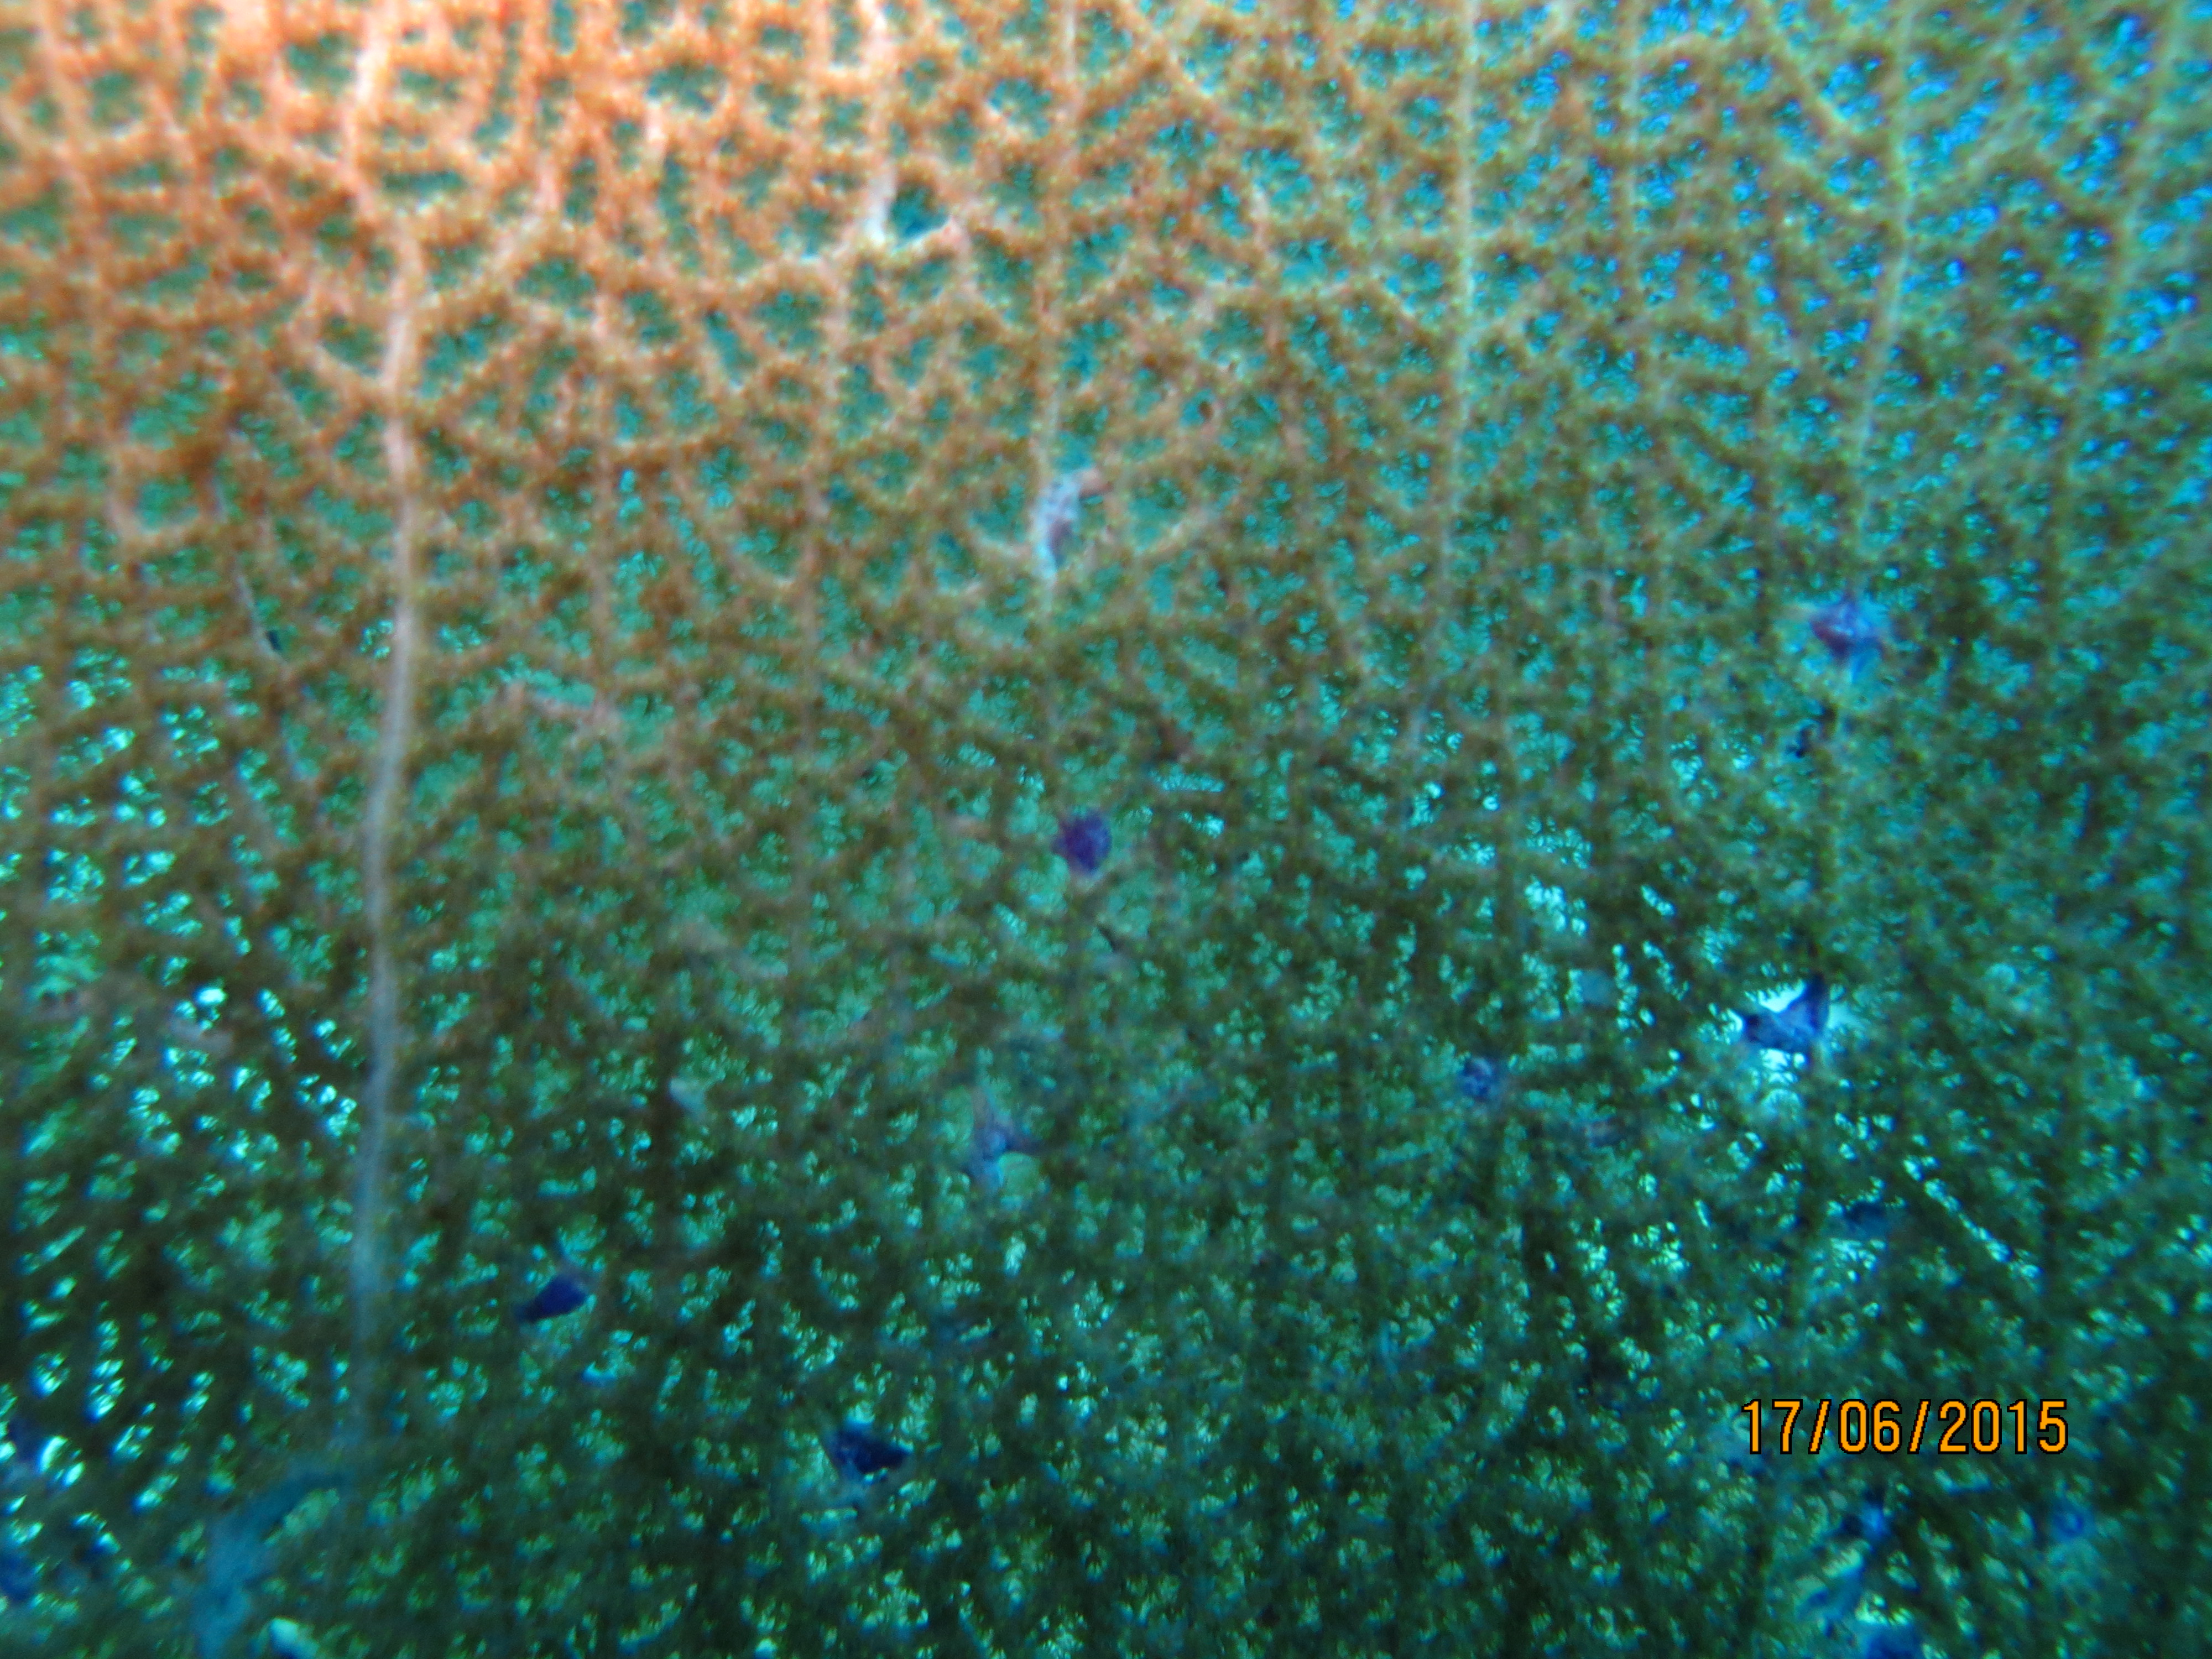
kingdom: Animalia
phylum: Cnidaria
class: Anthozoa
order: Malacalcyonacea
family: Gorgoniidae
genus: Gorgonia
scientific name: Gorgonia ventalina
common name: Common sea fan
